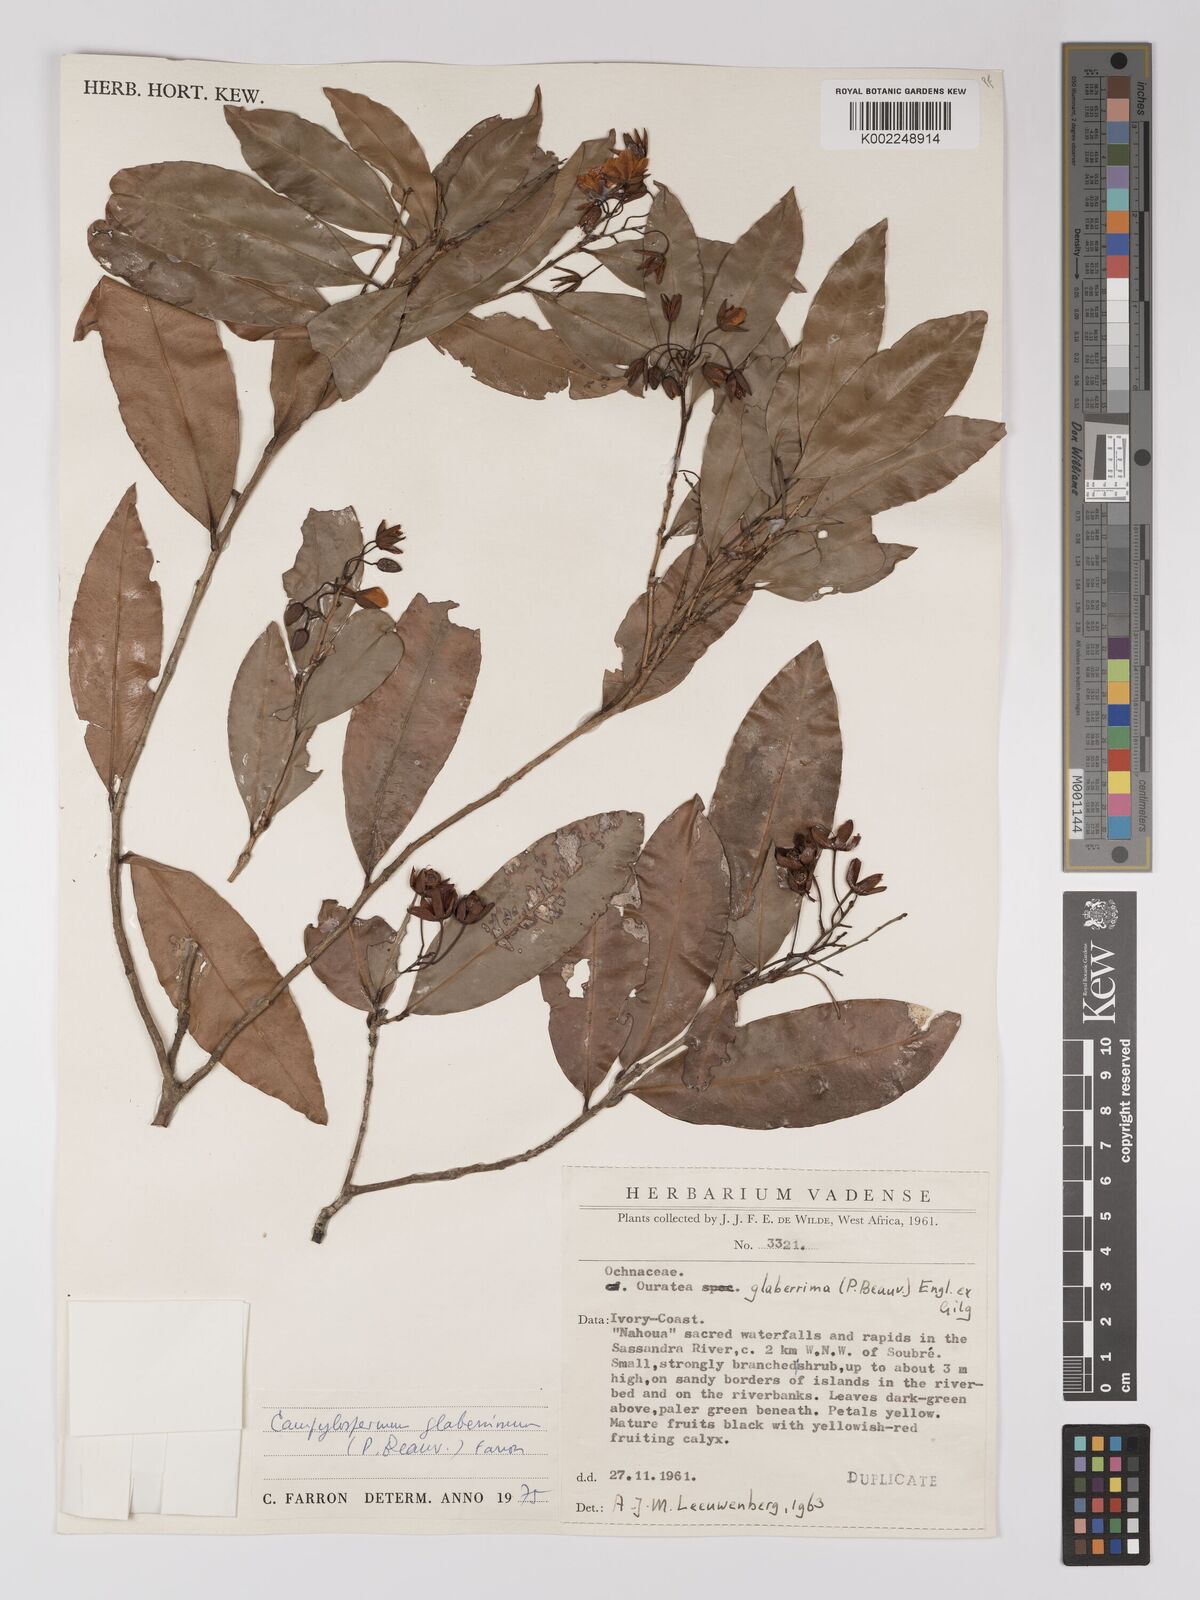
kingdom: Plantae
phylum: Tracheophyta
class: Magnoliopsida
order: Malpighiales
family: Ochnaceae
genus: Campylospermum
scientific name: Campylospermum glaberrimum
